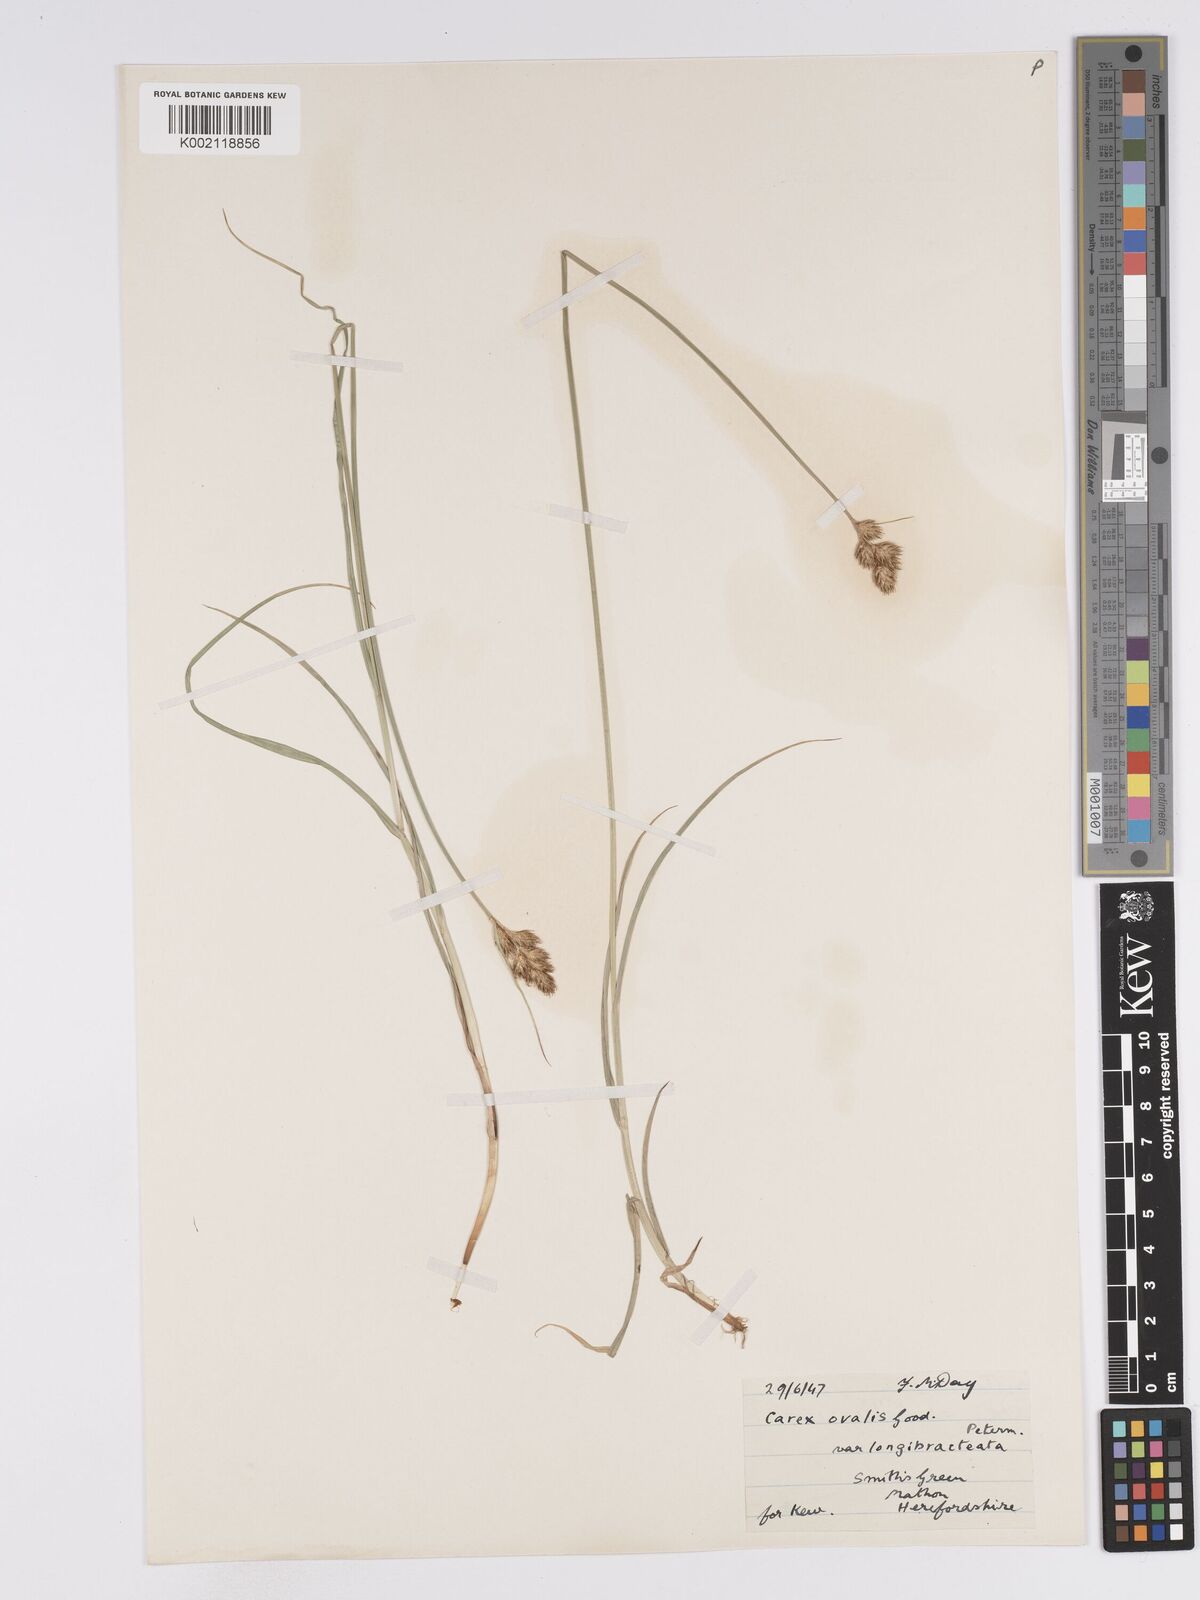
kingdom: Plantae
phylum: Tracheophyta
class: Liliopsida
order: Poales
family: Cyperaceae
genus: Carex
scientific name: Carex leporina
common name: Oval sedge
